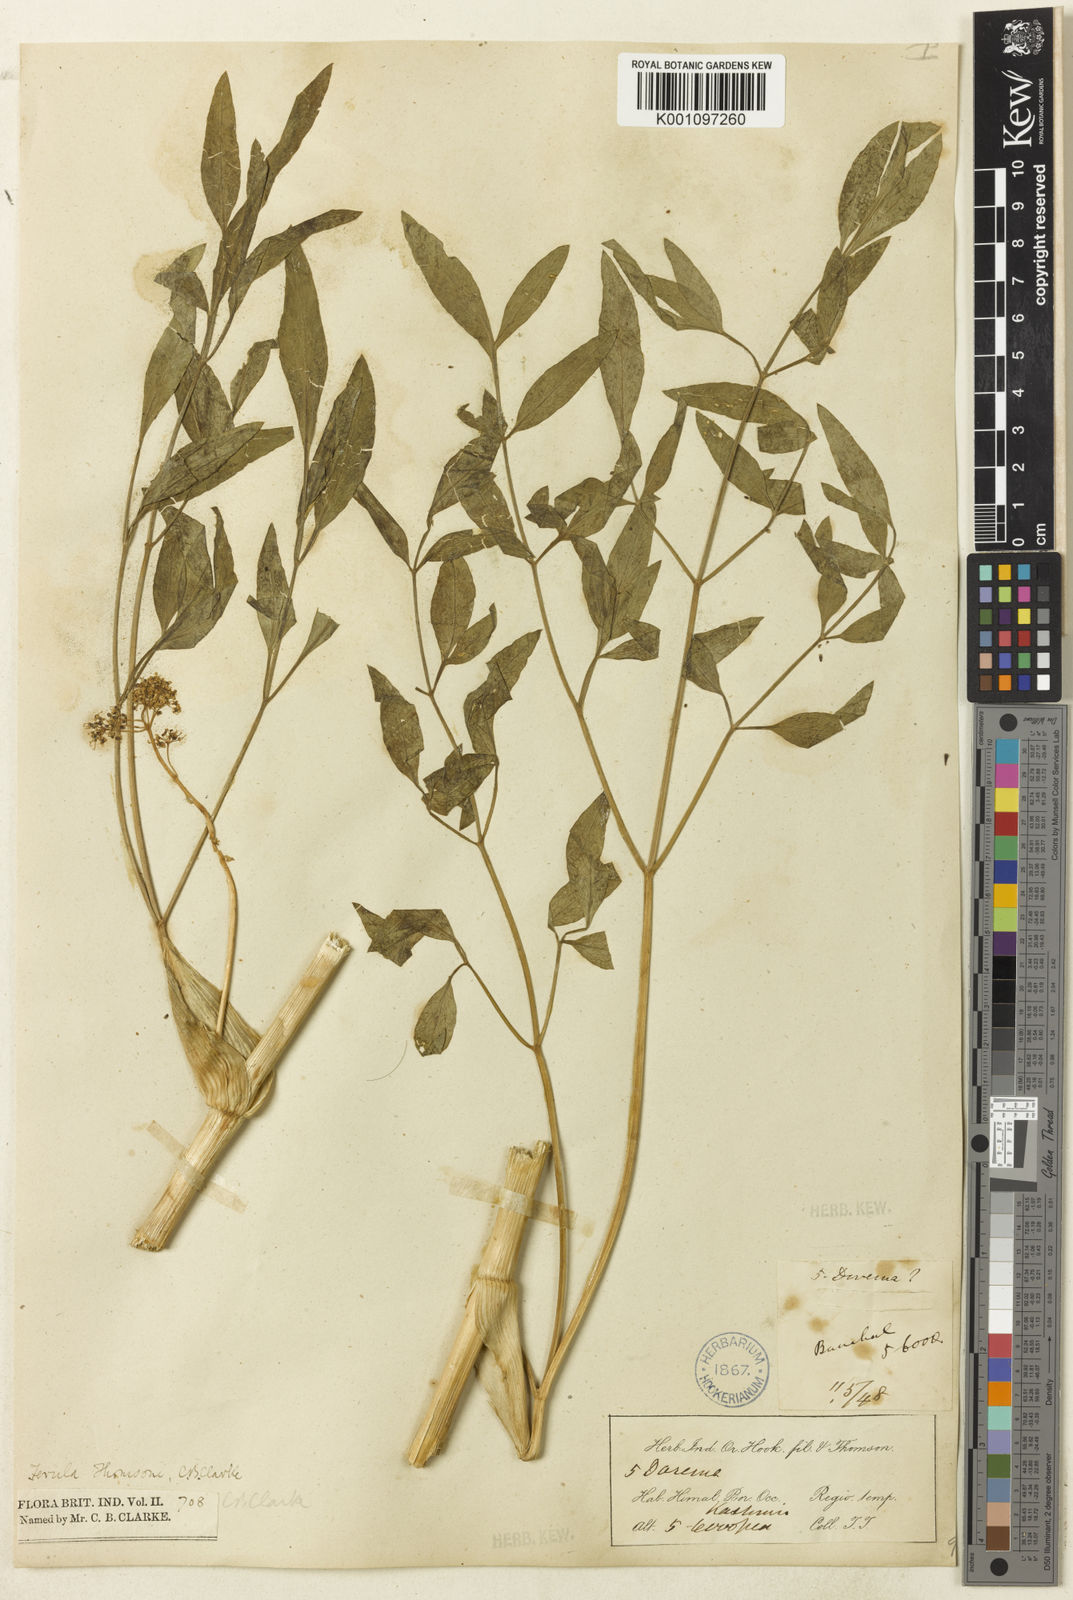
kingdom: Plantae
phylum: Tracheophyta
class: Magnoliopsida
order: Apiales
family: Apiaceae
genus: Ferula
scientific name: Ferula ovina
